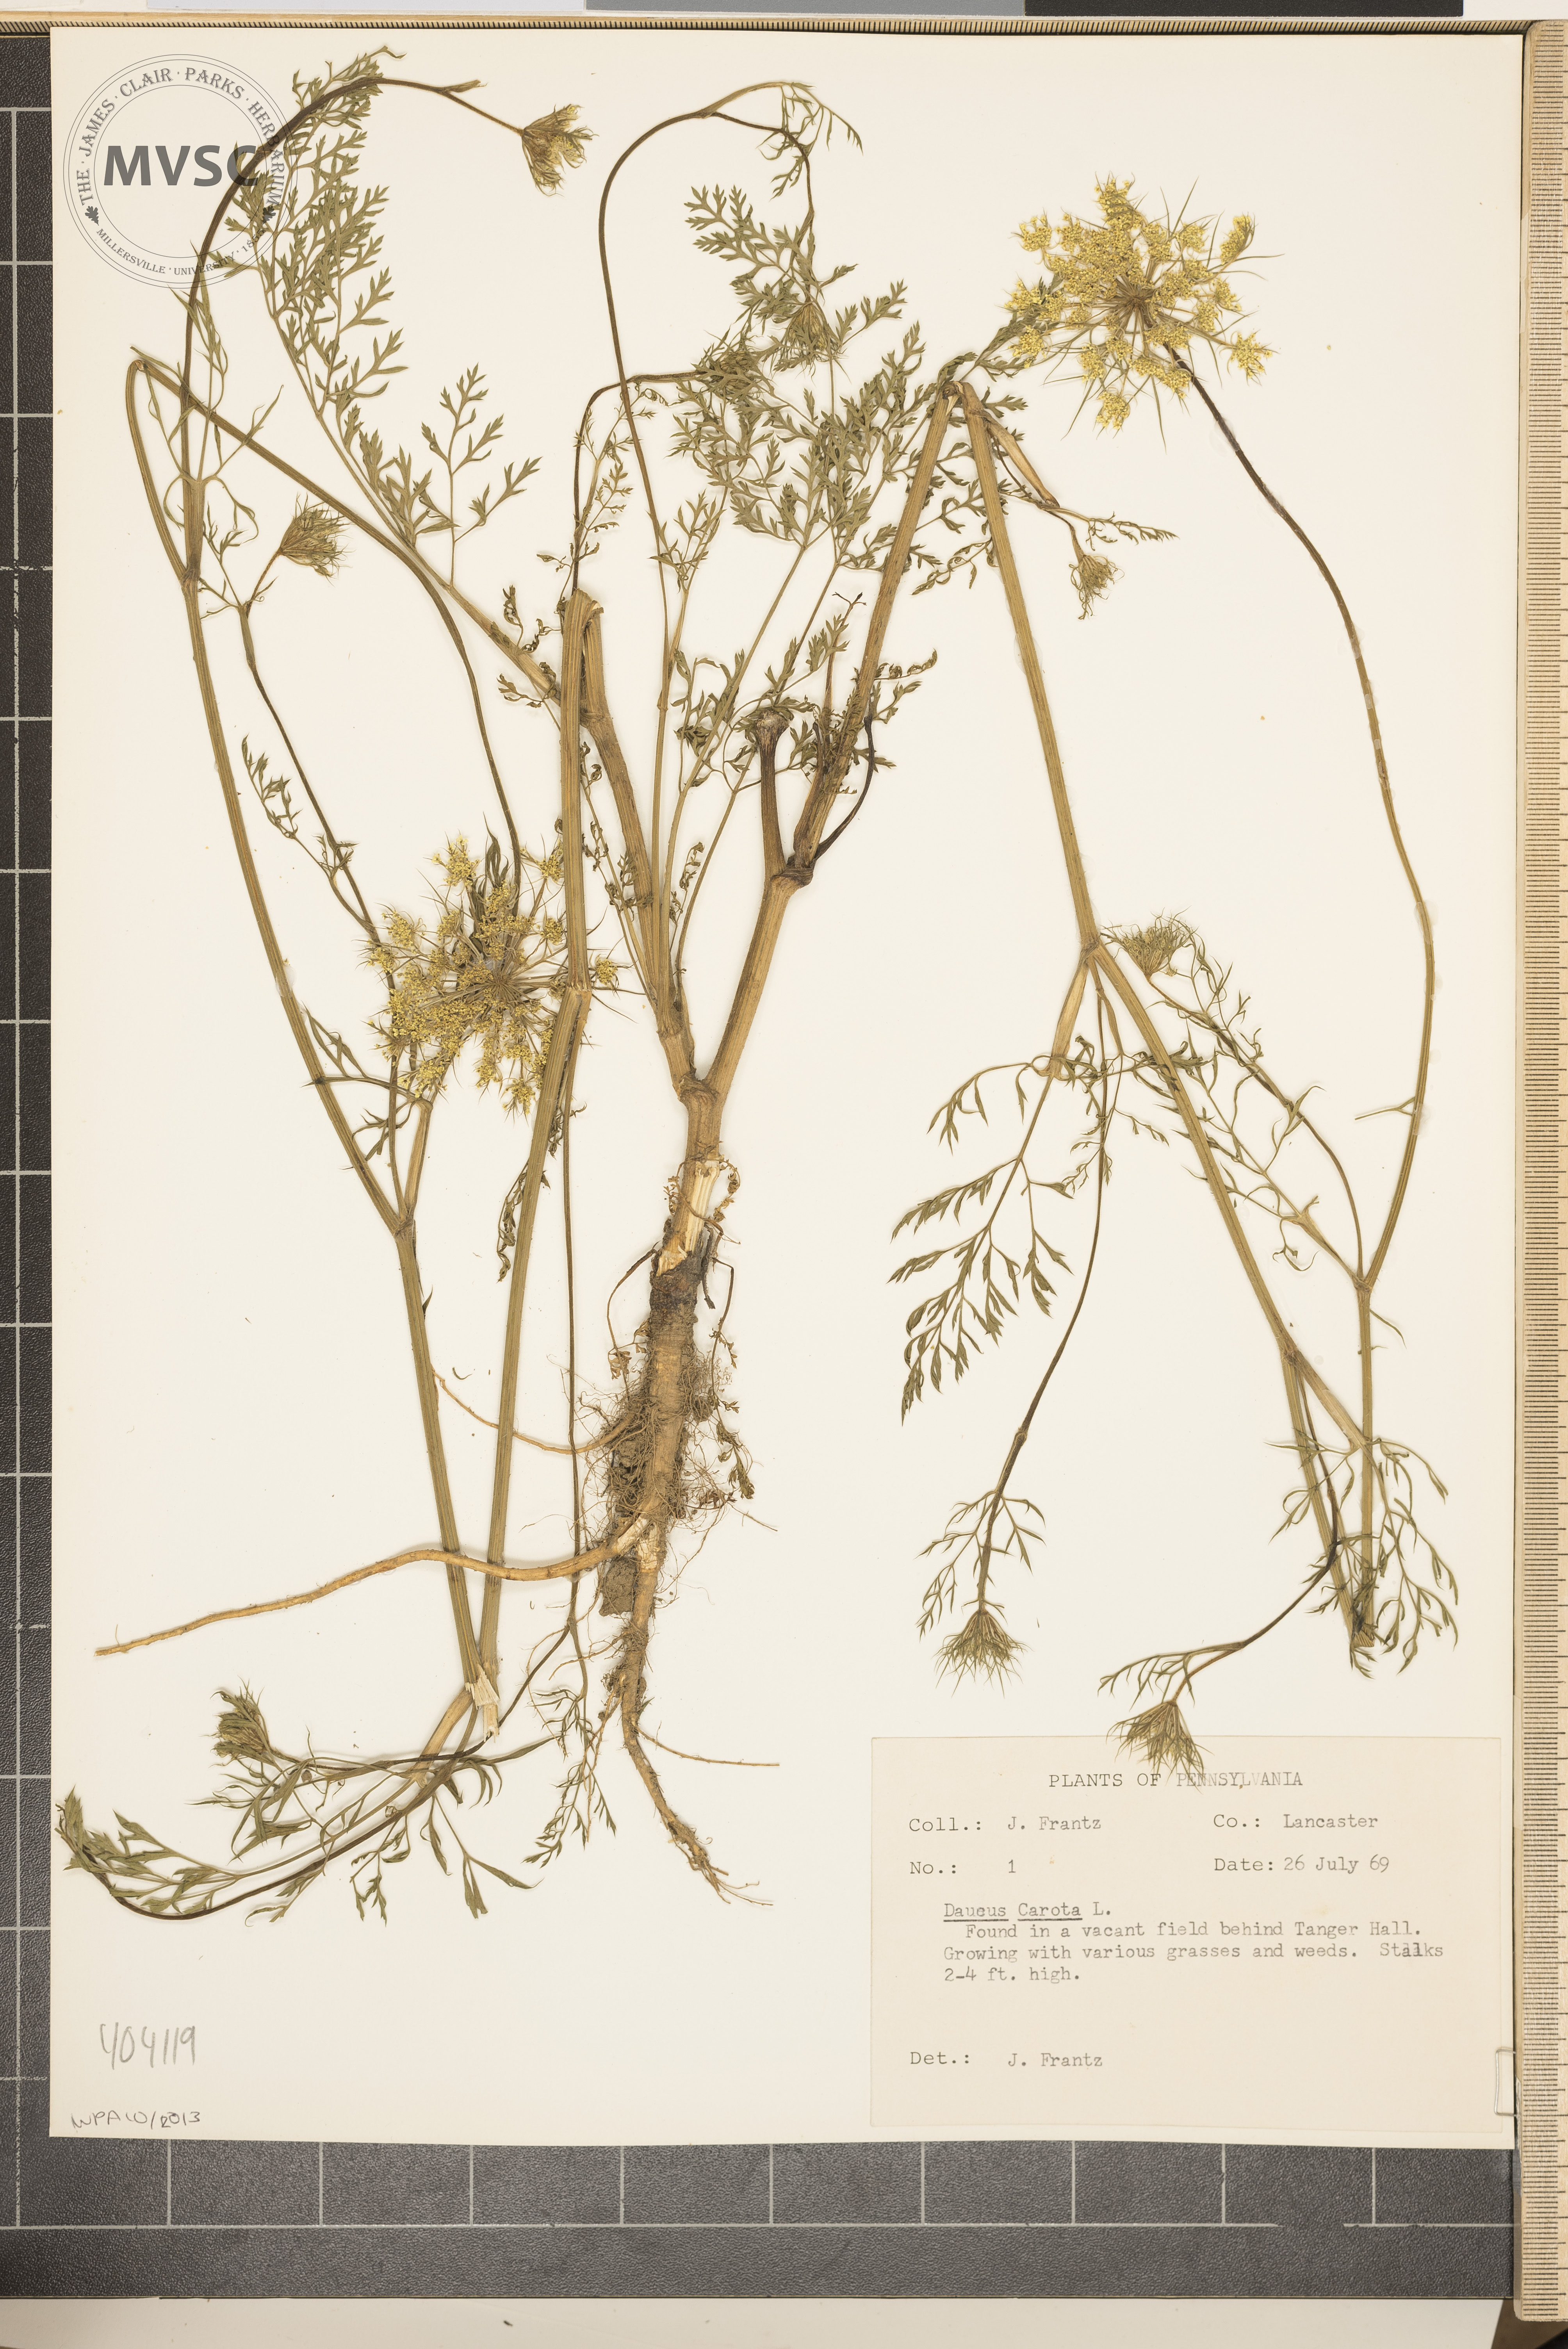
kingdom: Plantae
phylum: Tracheophyta
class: Magnoliopsida
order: Apiales
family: Apiaceae
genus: Daucus
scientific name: Daucus carota
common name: Wild carrot
